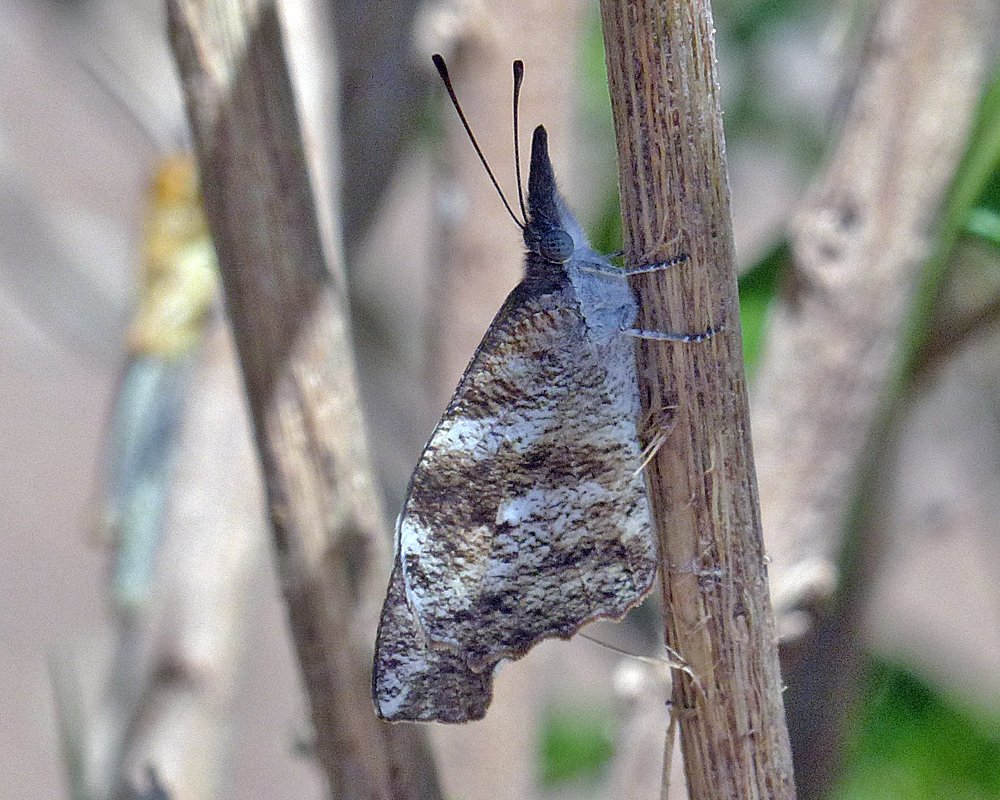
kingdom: Animalia
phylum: Arthropoda
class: Insecta
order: Lepidoptera
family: Nymphalidae
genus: Libytheana
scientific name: Libytheana carinenta
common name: American Snout
